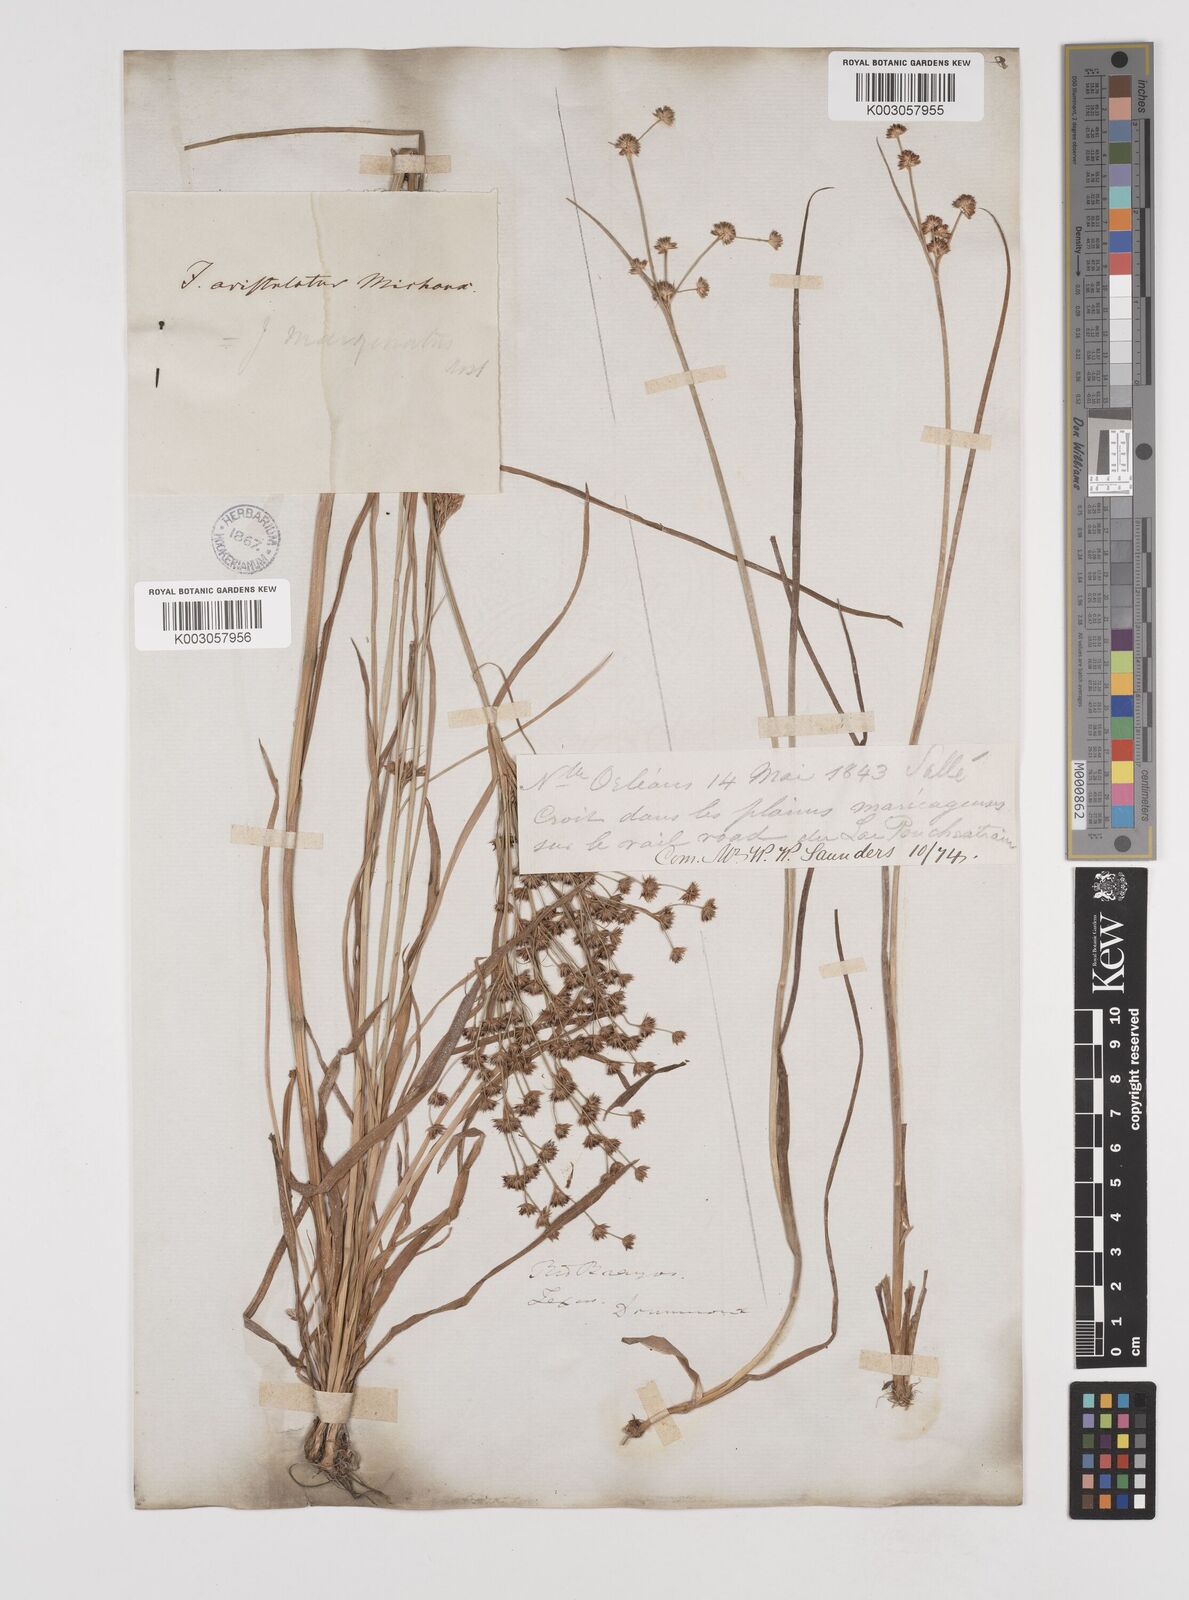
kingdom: Plantae
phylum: Tracheophyta
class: Liliopsida
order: Poales
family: Juncaceae
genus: Juncus
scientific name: Juncus marginatus
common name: Grass-leaf rush
